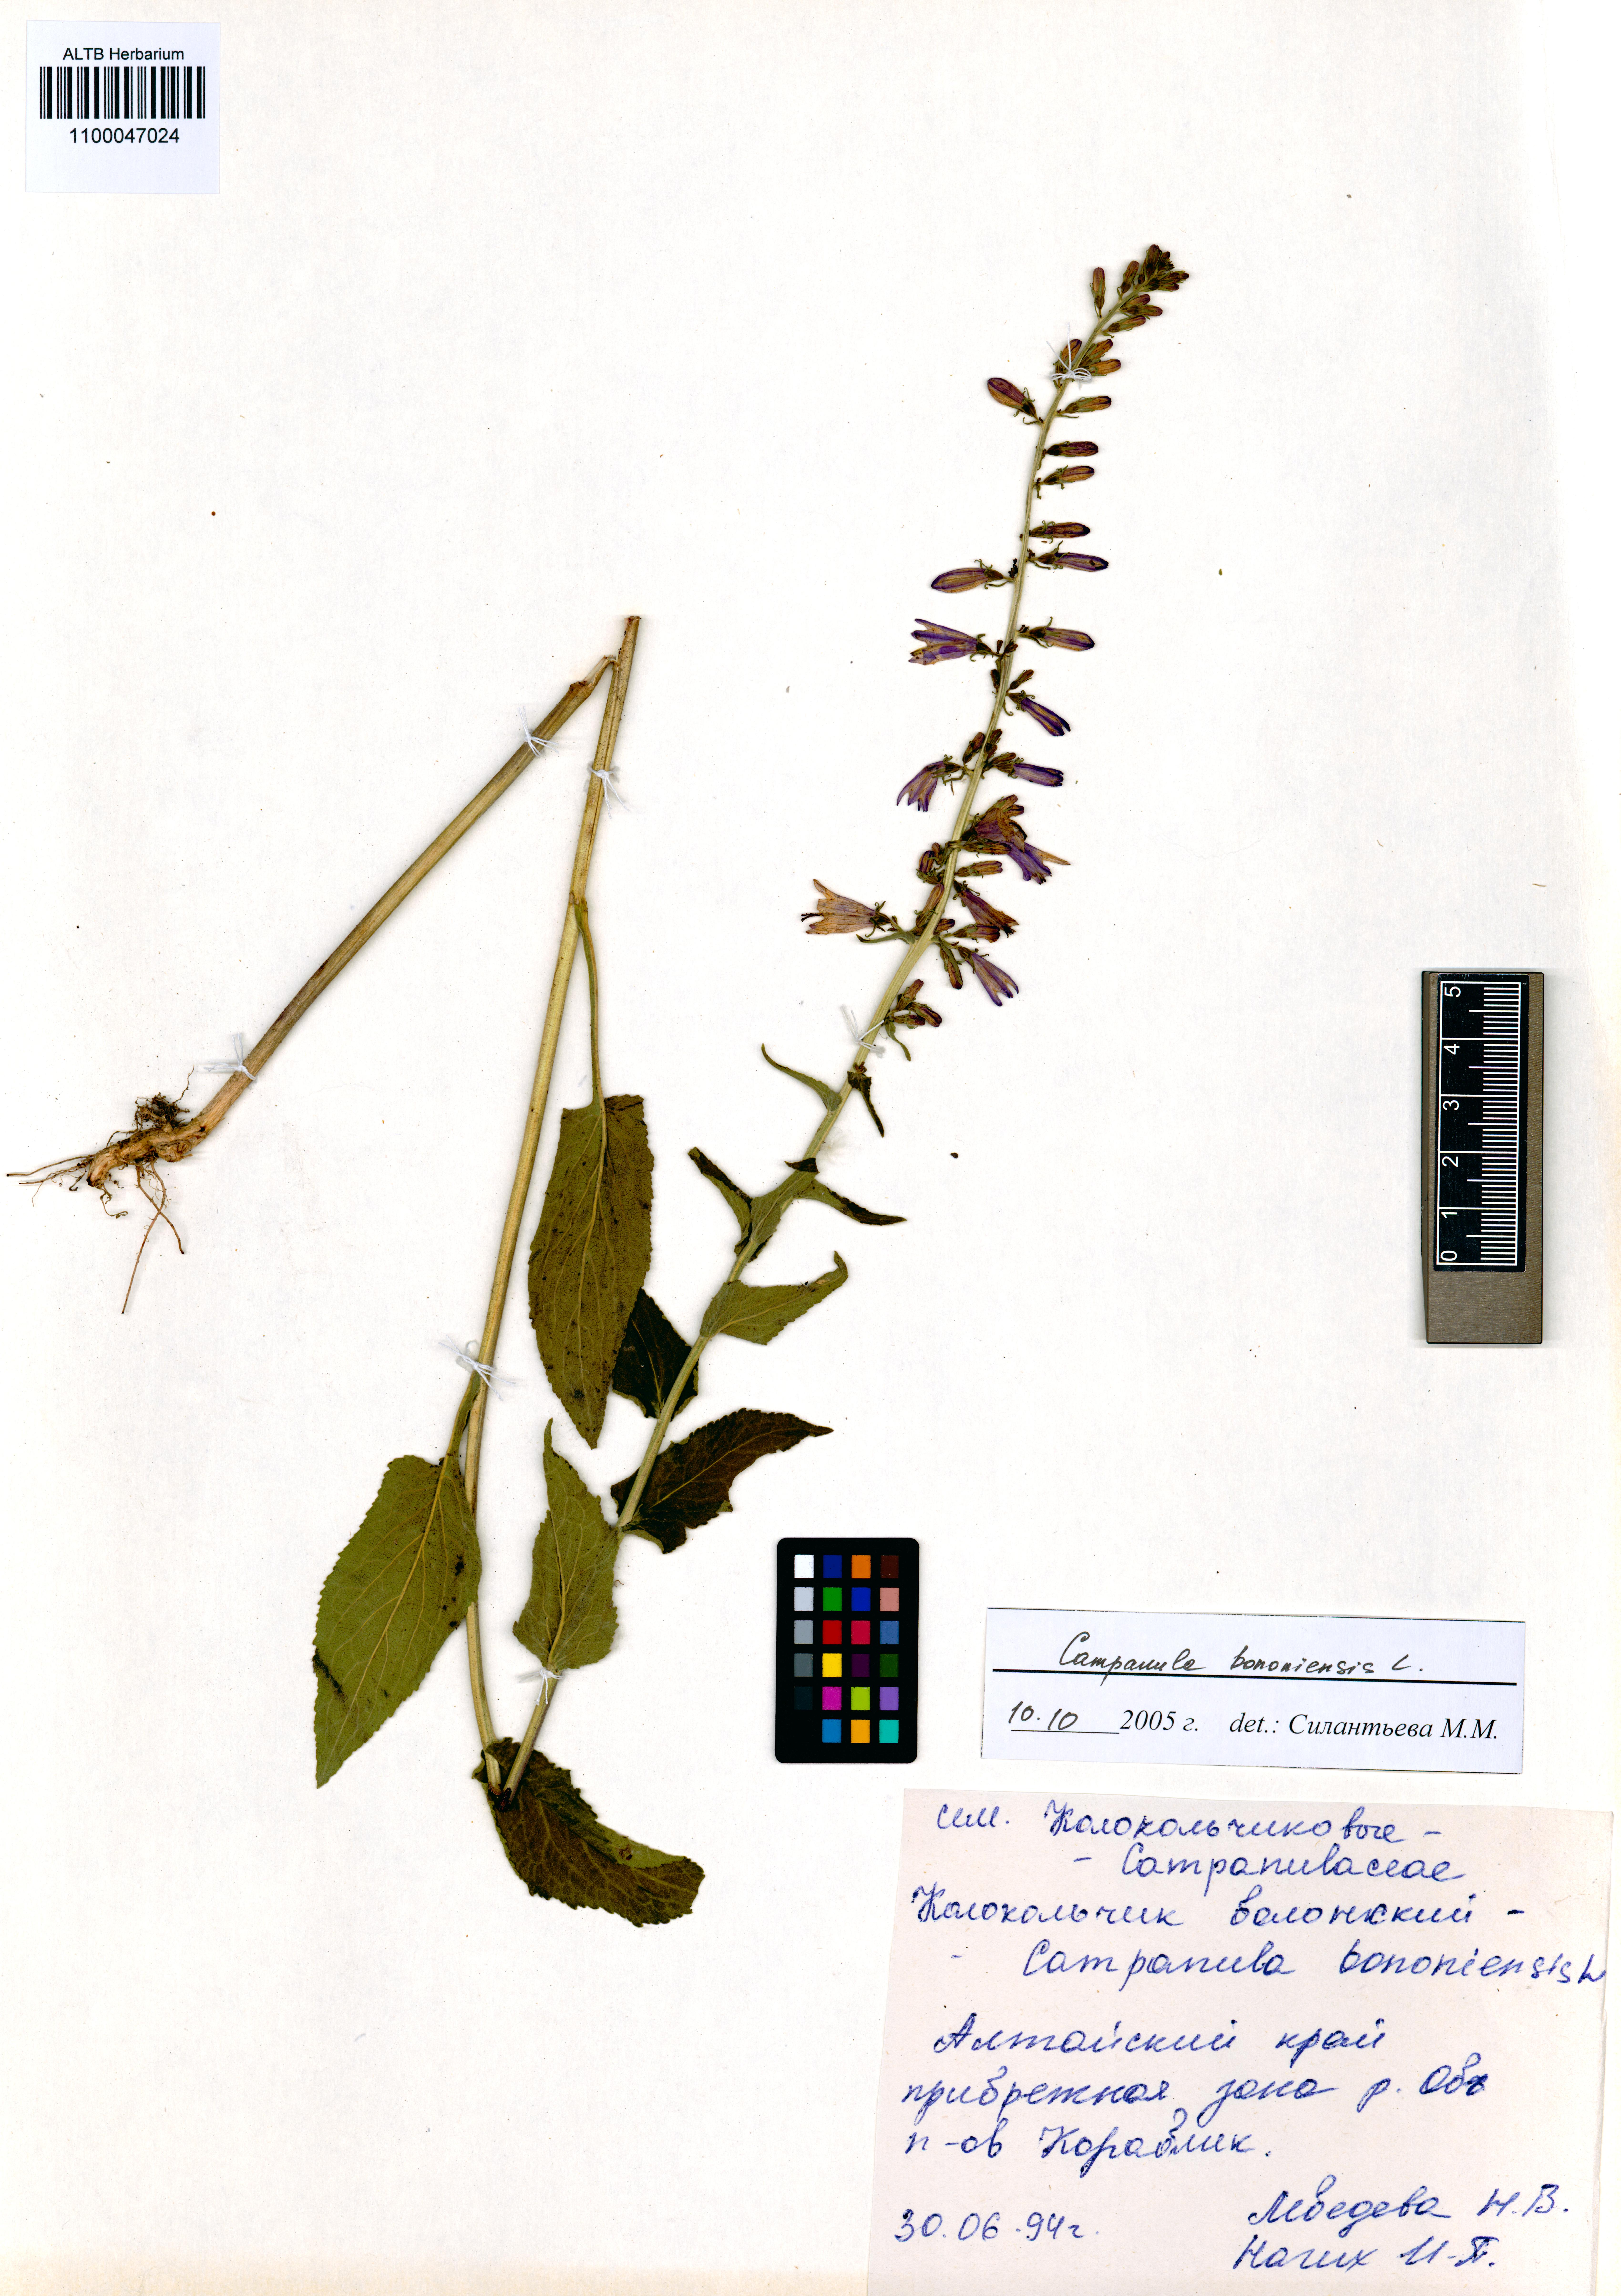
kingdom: Plantae
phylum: Tracheophyta
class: Magnoliopsida
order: Asterales
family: Campanulaceae
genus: Campanula
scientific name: Campanula bononiensis
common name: Pale bellflower
